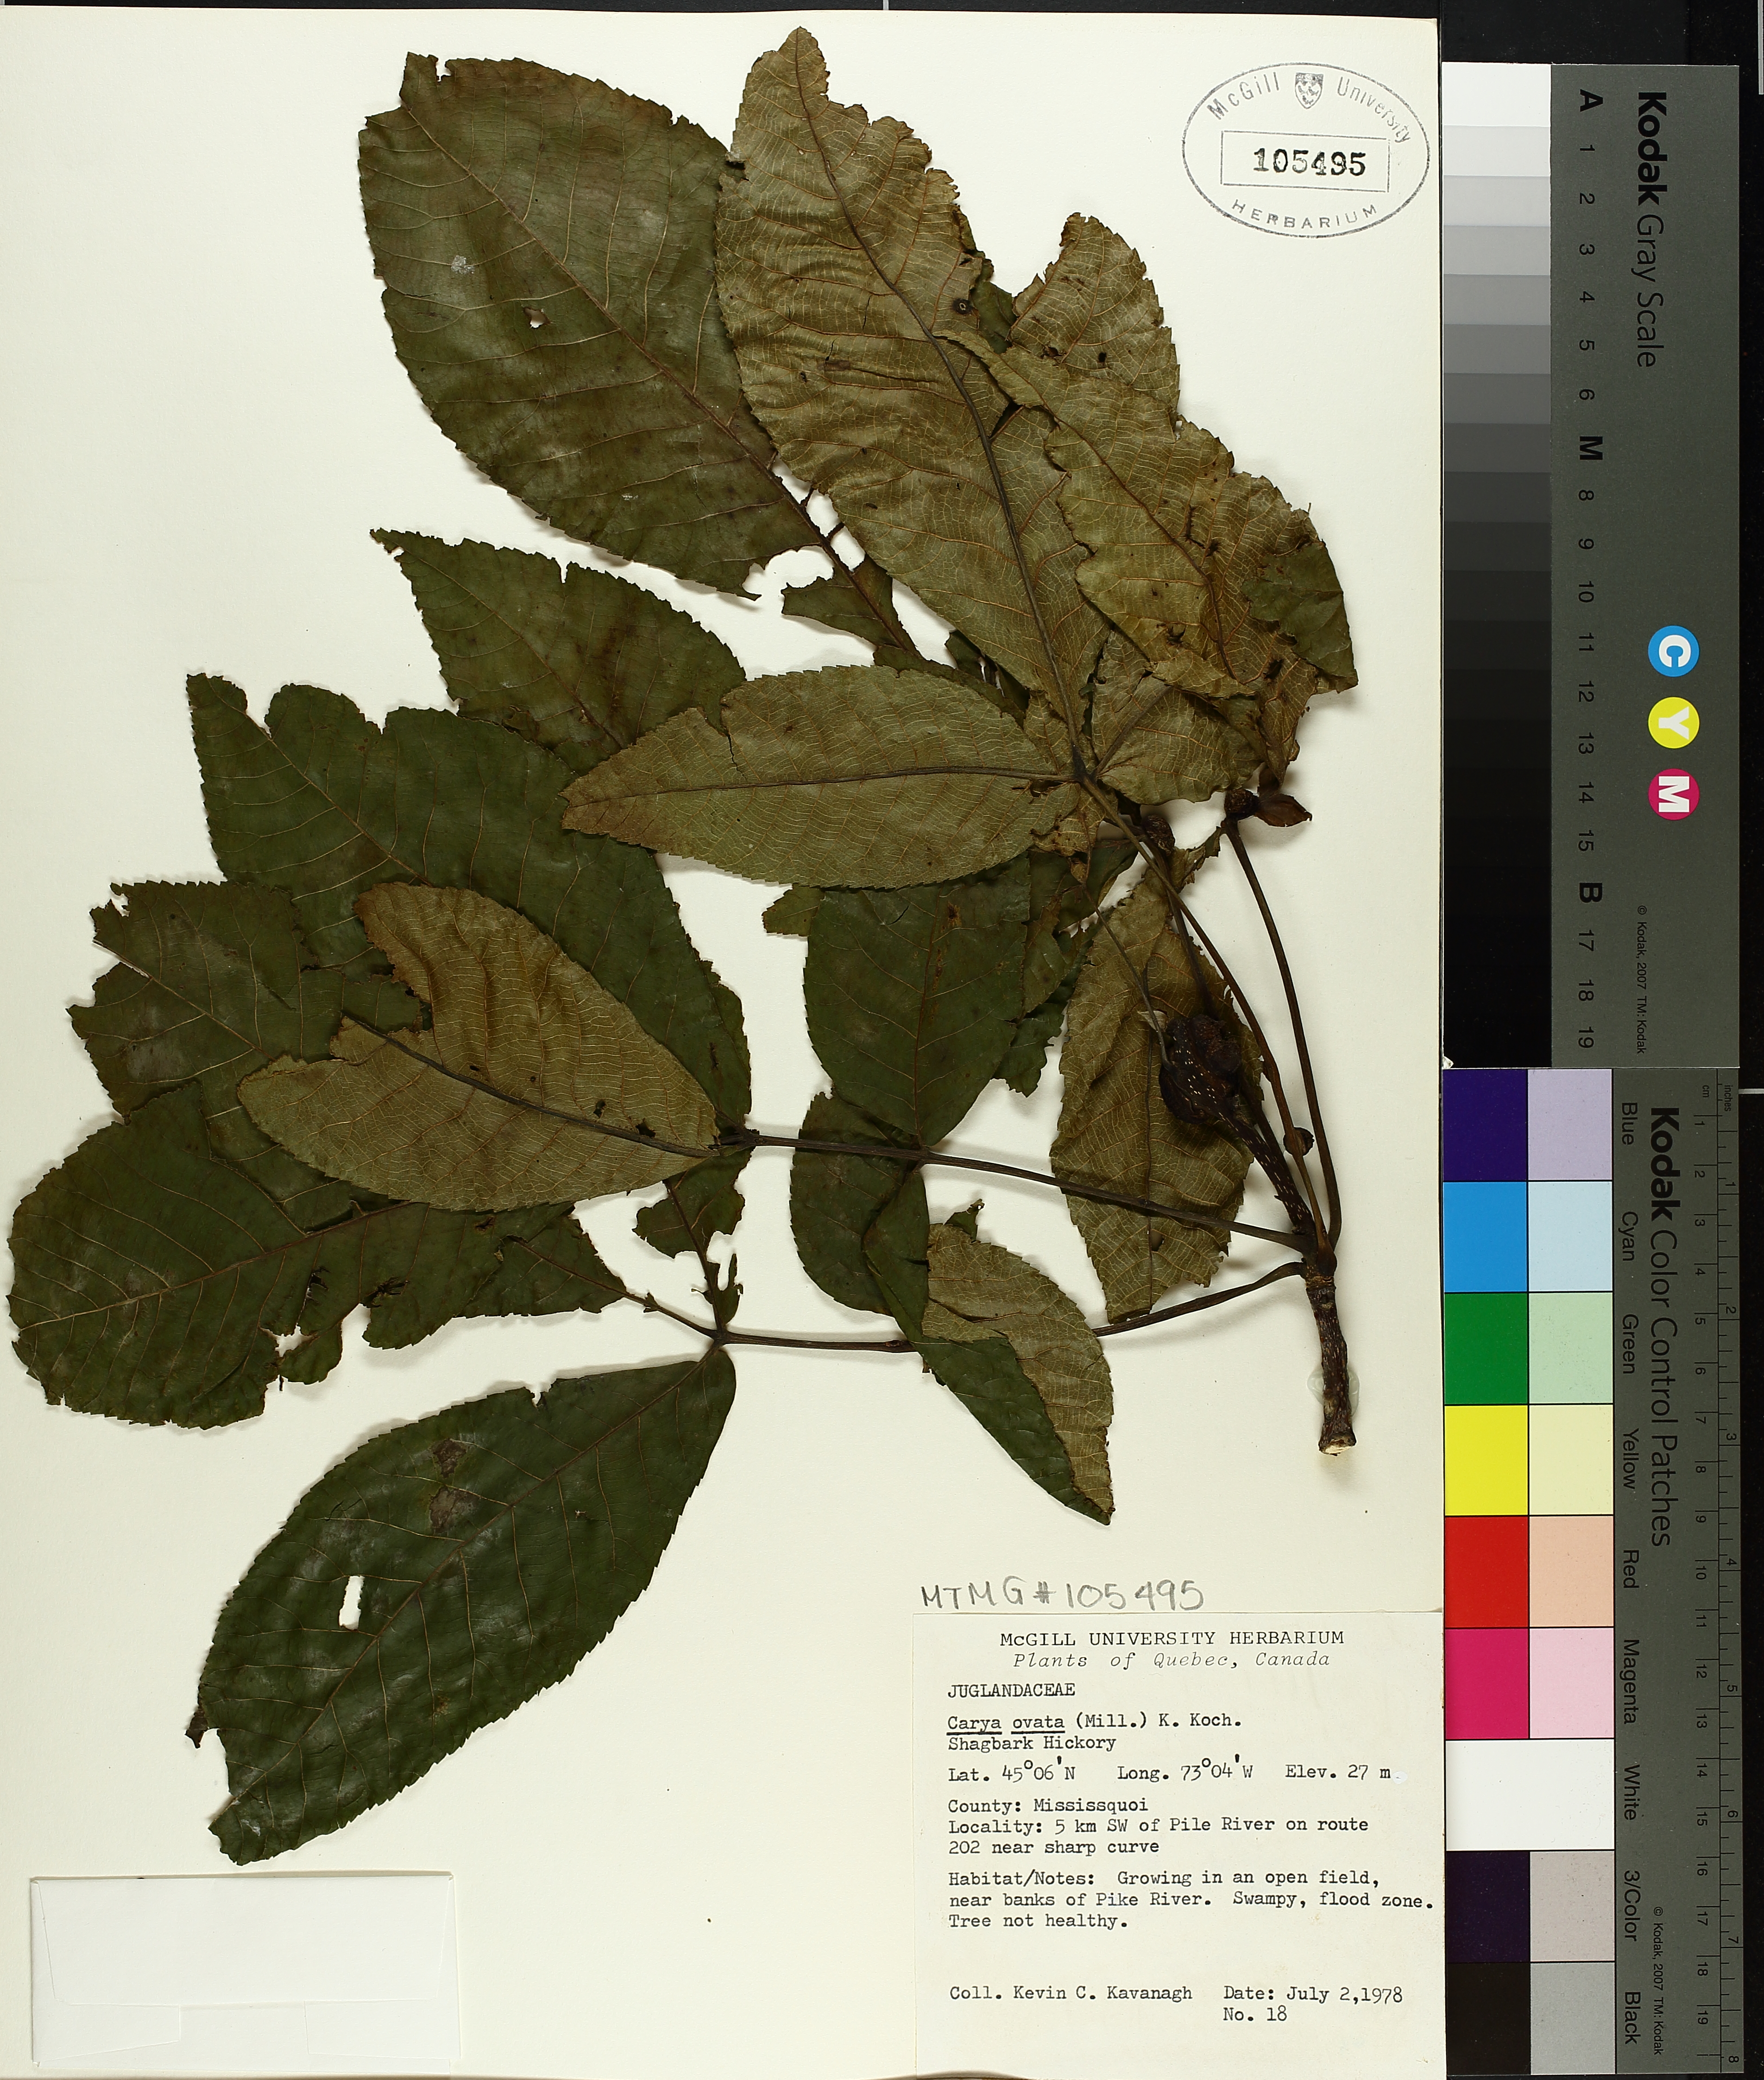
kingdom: Plantae
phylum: Tracheophyta
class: Magnoliopsida
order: Fagales
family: Juglandaceae
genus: Carya
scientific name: Carya ovata
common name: Shagbark hickory
